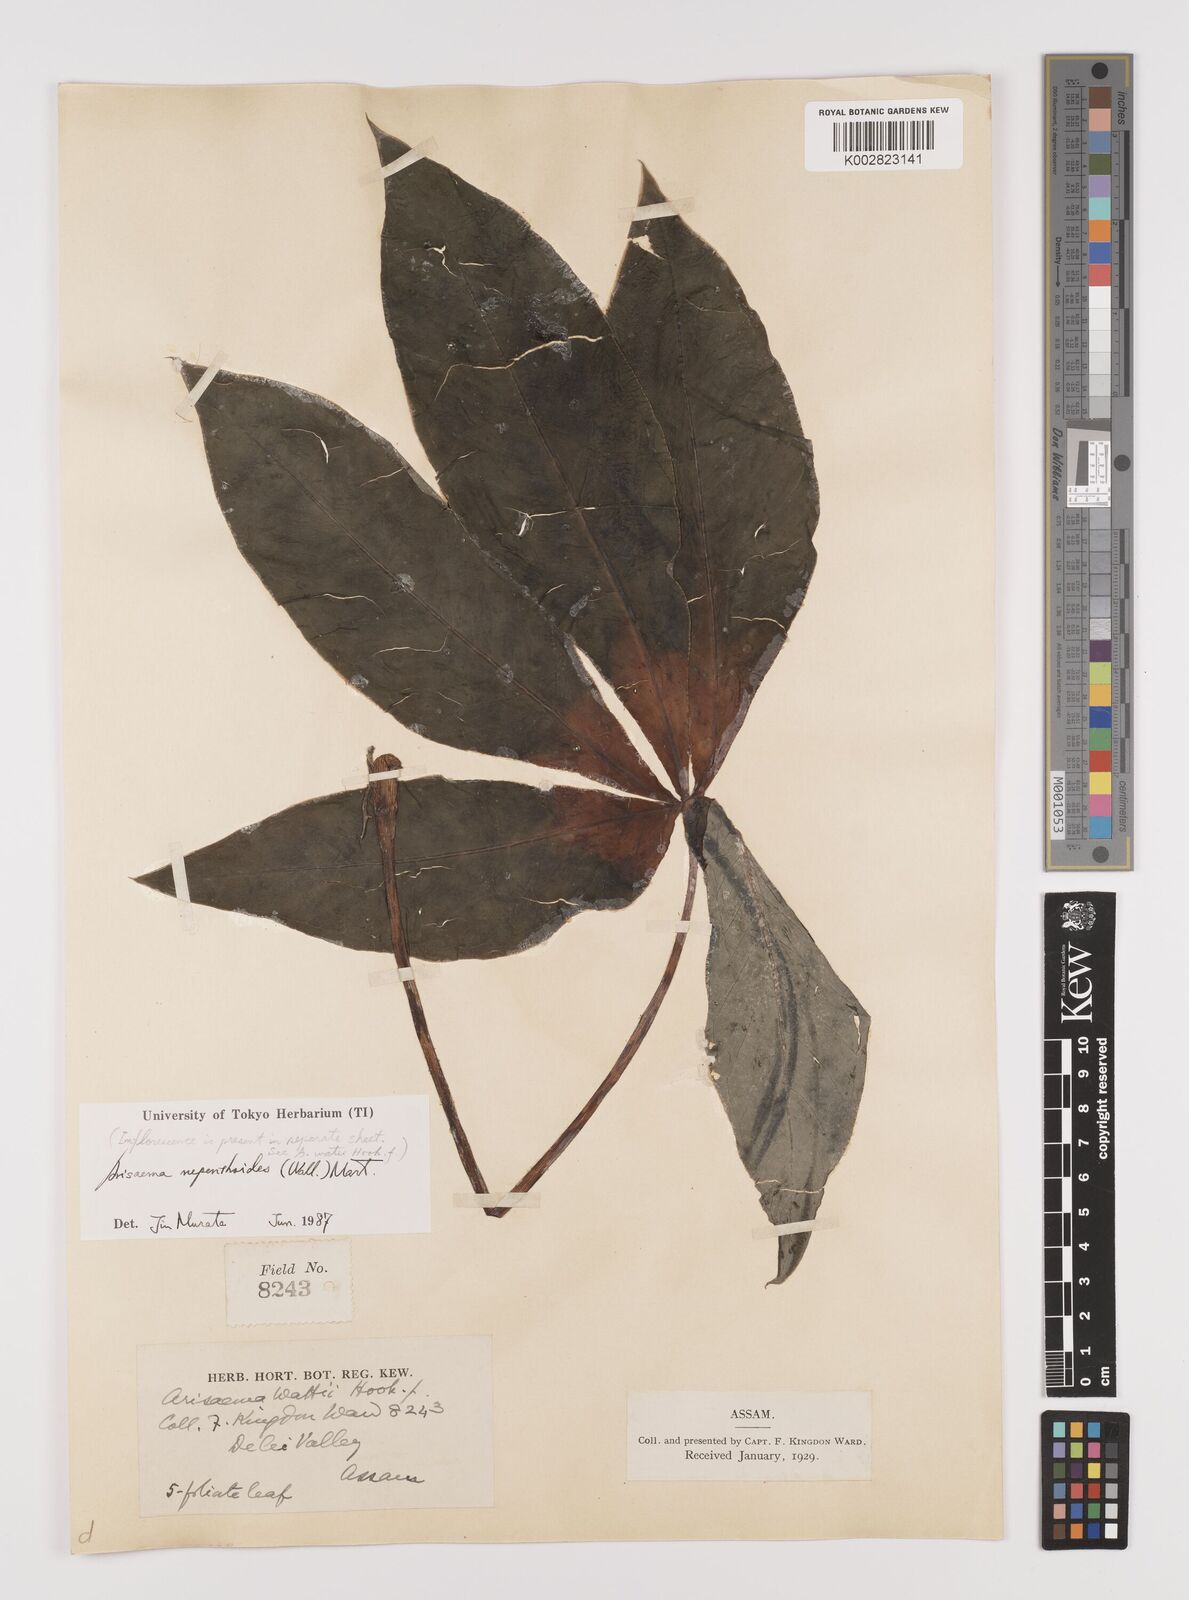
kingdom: Plantae
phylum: Tracheophyta
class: Liliopsida
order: Alismatales
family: Araceae
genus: Arisaema
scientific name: Arisaema nepenthoides
